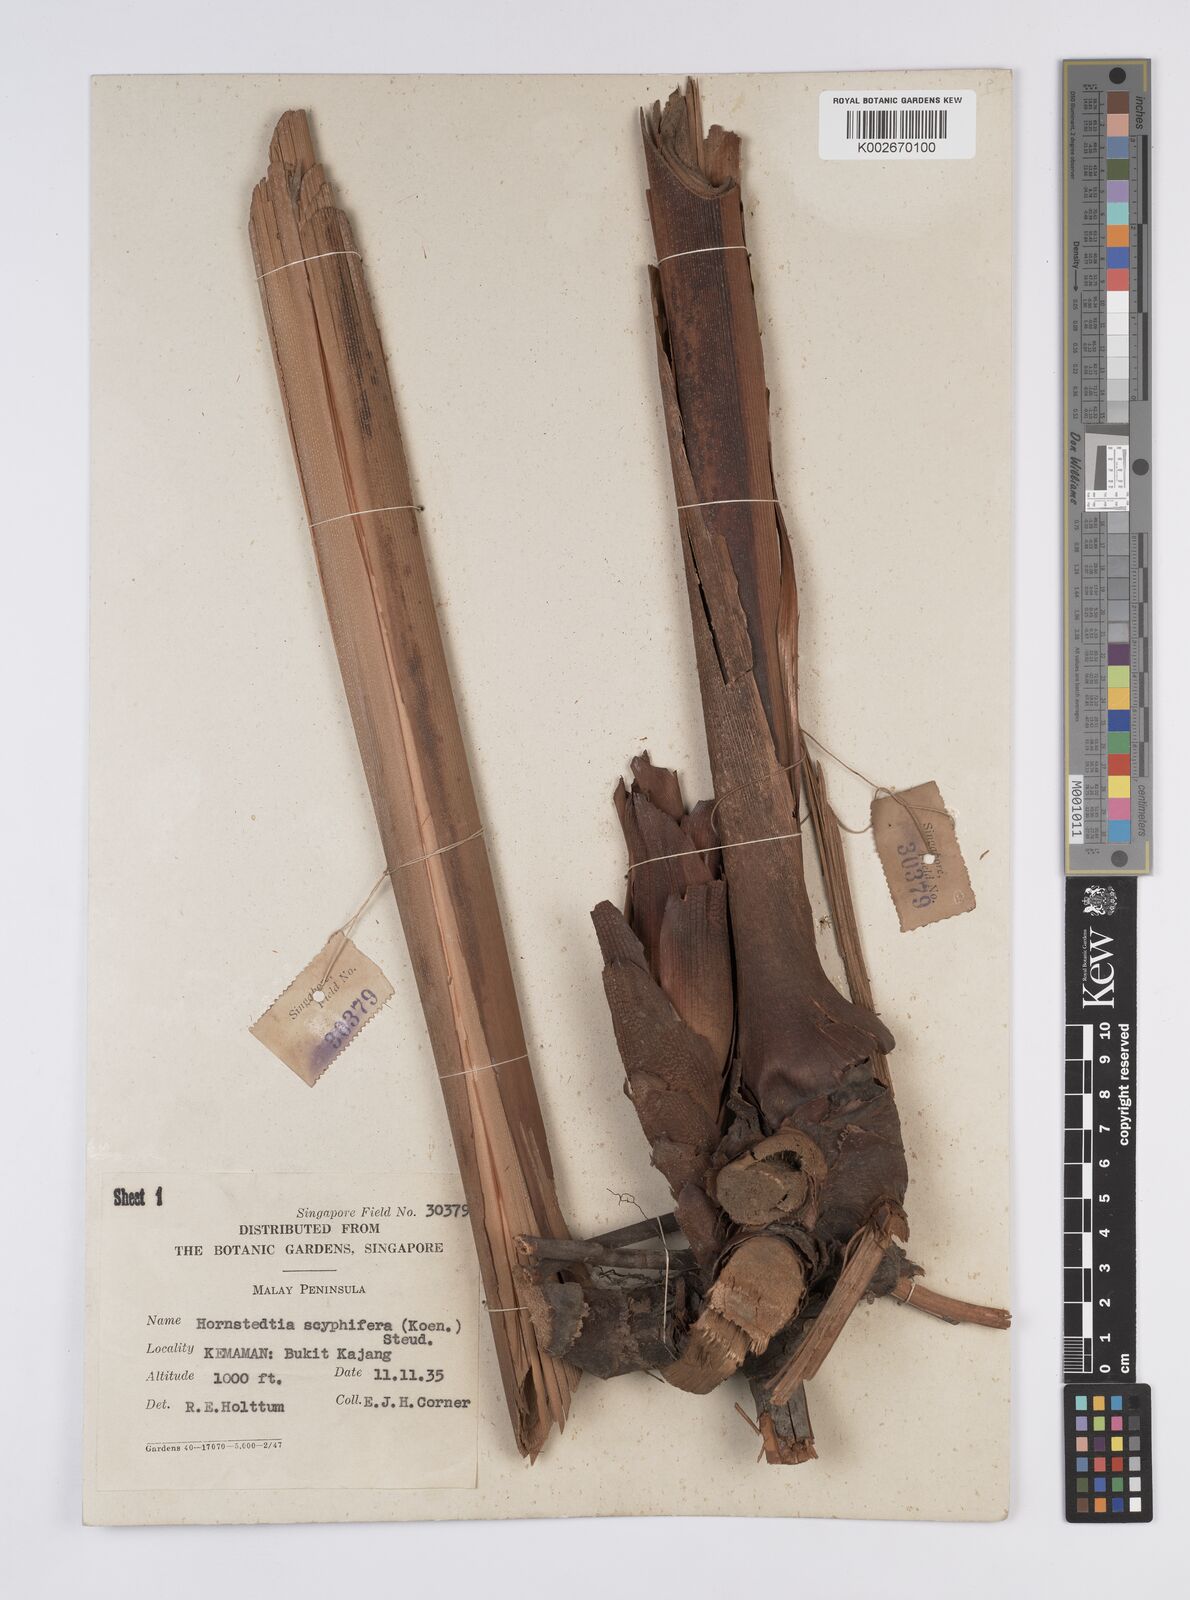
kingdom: Plantae
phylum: Tracheophyta
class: Liliopsida
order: Zingiberales
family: Zingiberaceae
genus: Hornstedtia
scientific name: Hornstedtia scyphifera
